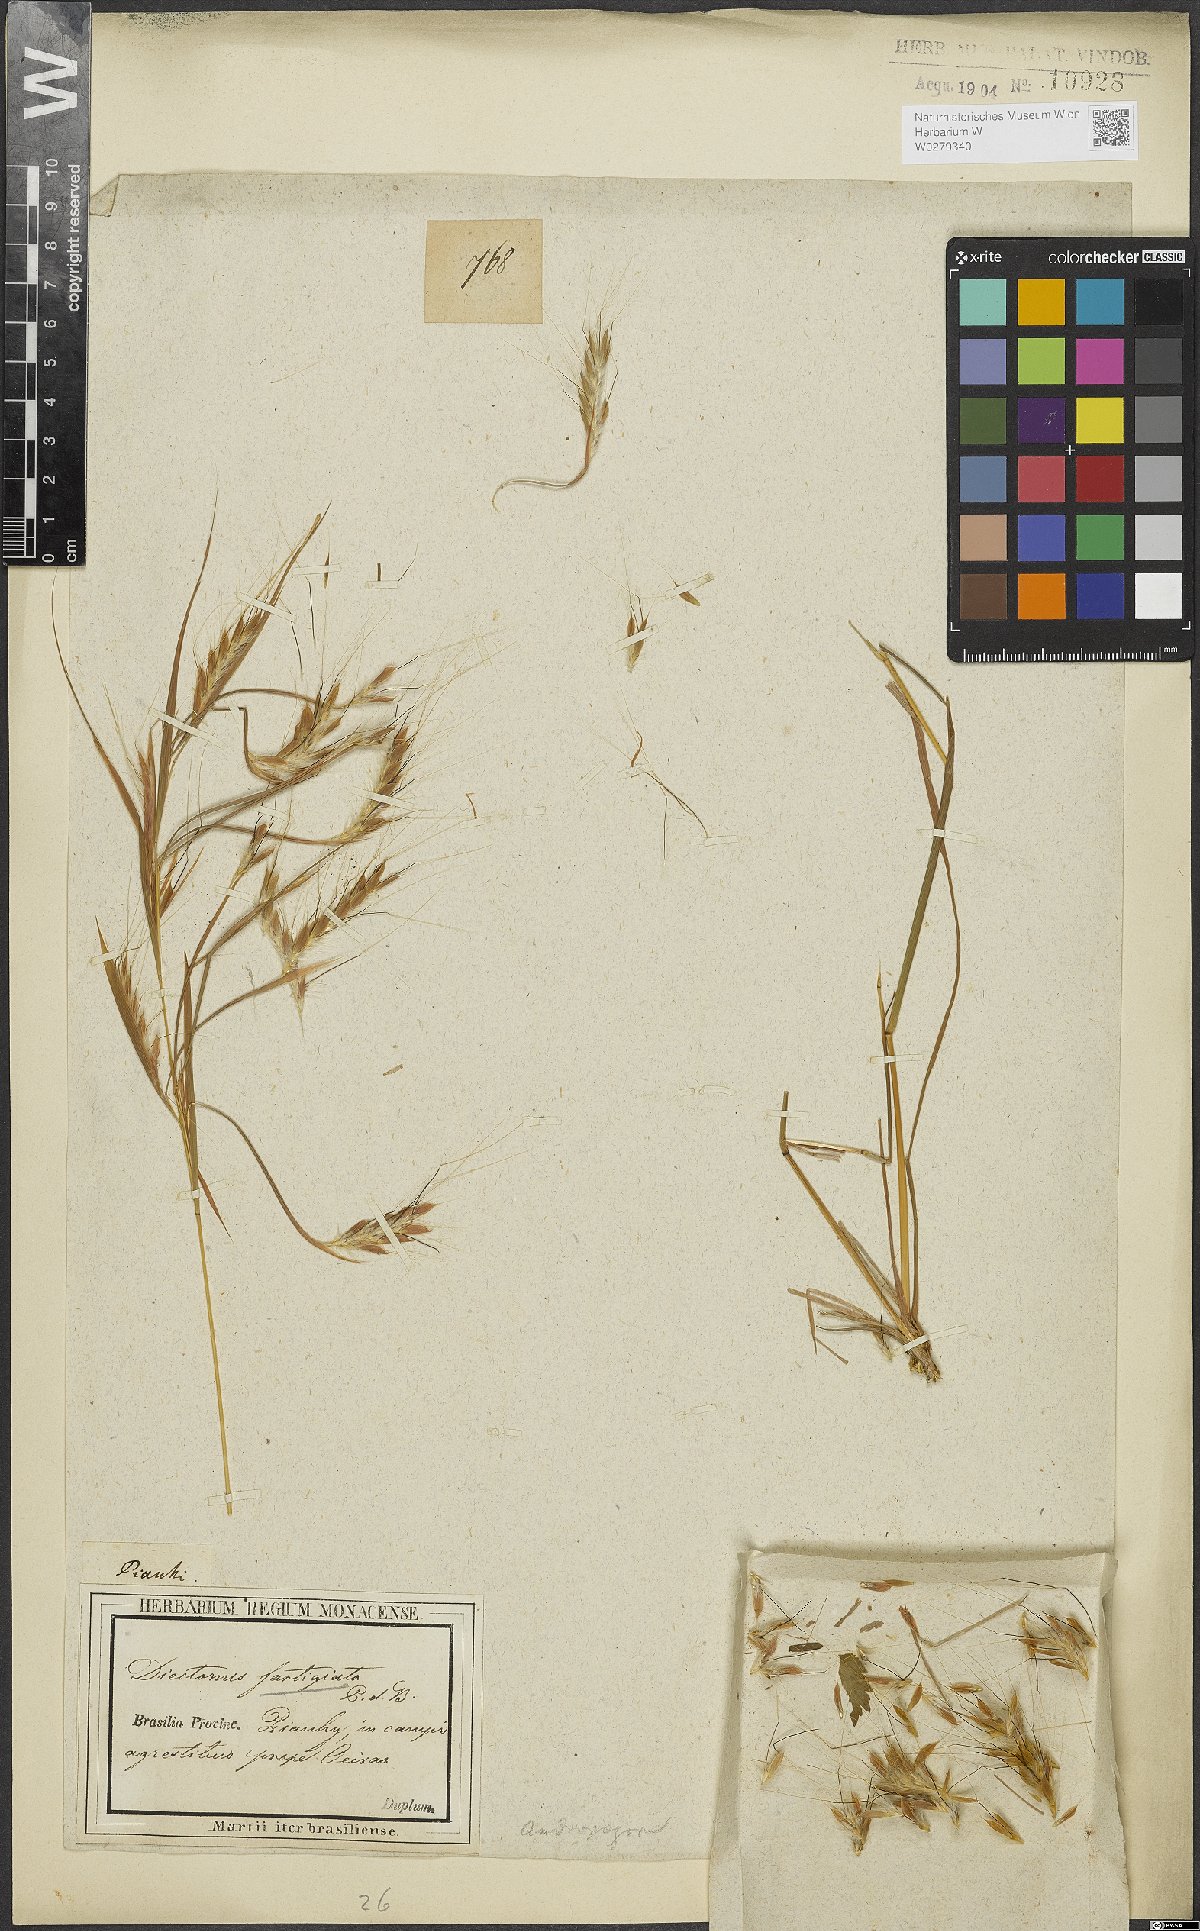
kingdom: Plantae
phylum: Tracheophyta
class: Liliopsida
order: Poales
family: Poaceae
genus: Diectomis
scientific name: Diectomis fastigiata
